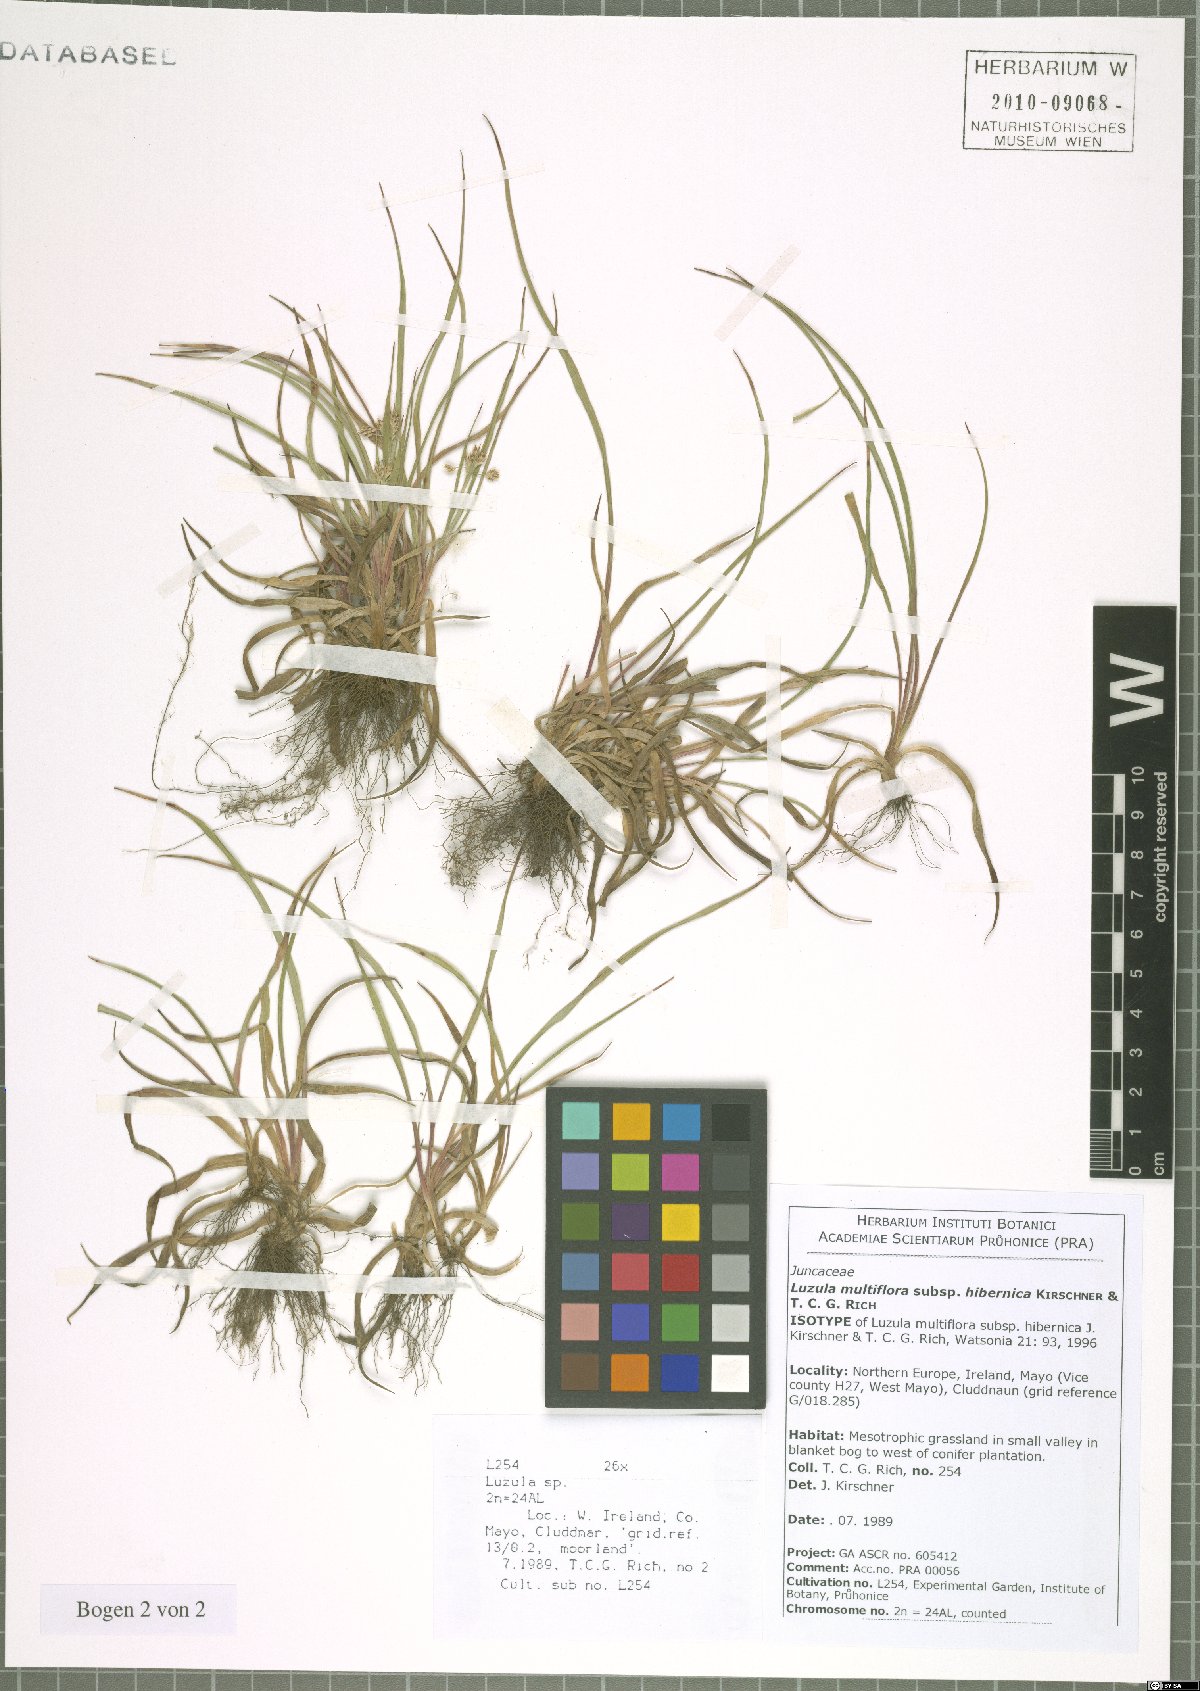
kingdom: Plantae
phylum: Tracheophyta
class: Liliopsida
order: Poales
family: Juncaceae
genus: Luzula
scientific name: Luzula multiflora
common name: Heath wood-rush
